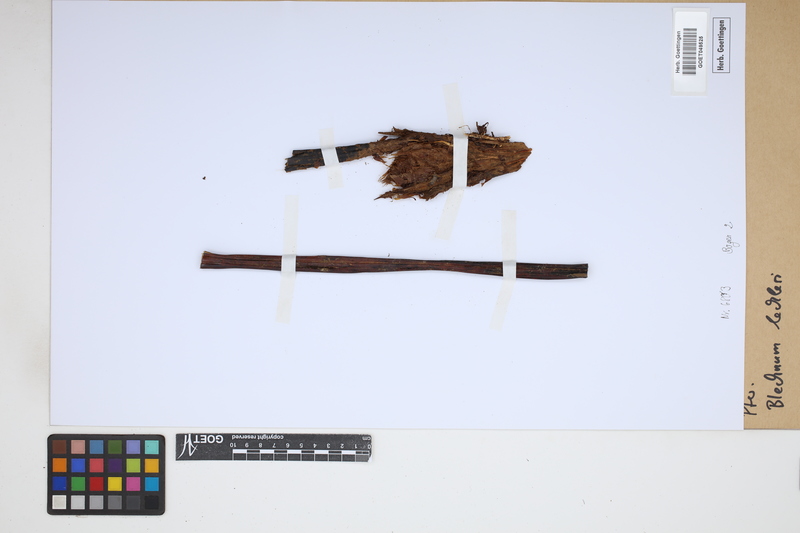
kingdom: Plantae
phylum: Tracheophyta
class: Polypodiopsida
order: Polypodiales
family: Blechnaceae
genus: Parablechnum
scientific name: Parablechnum lechleri
